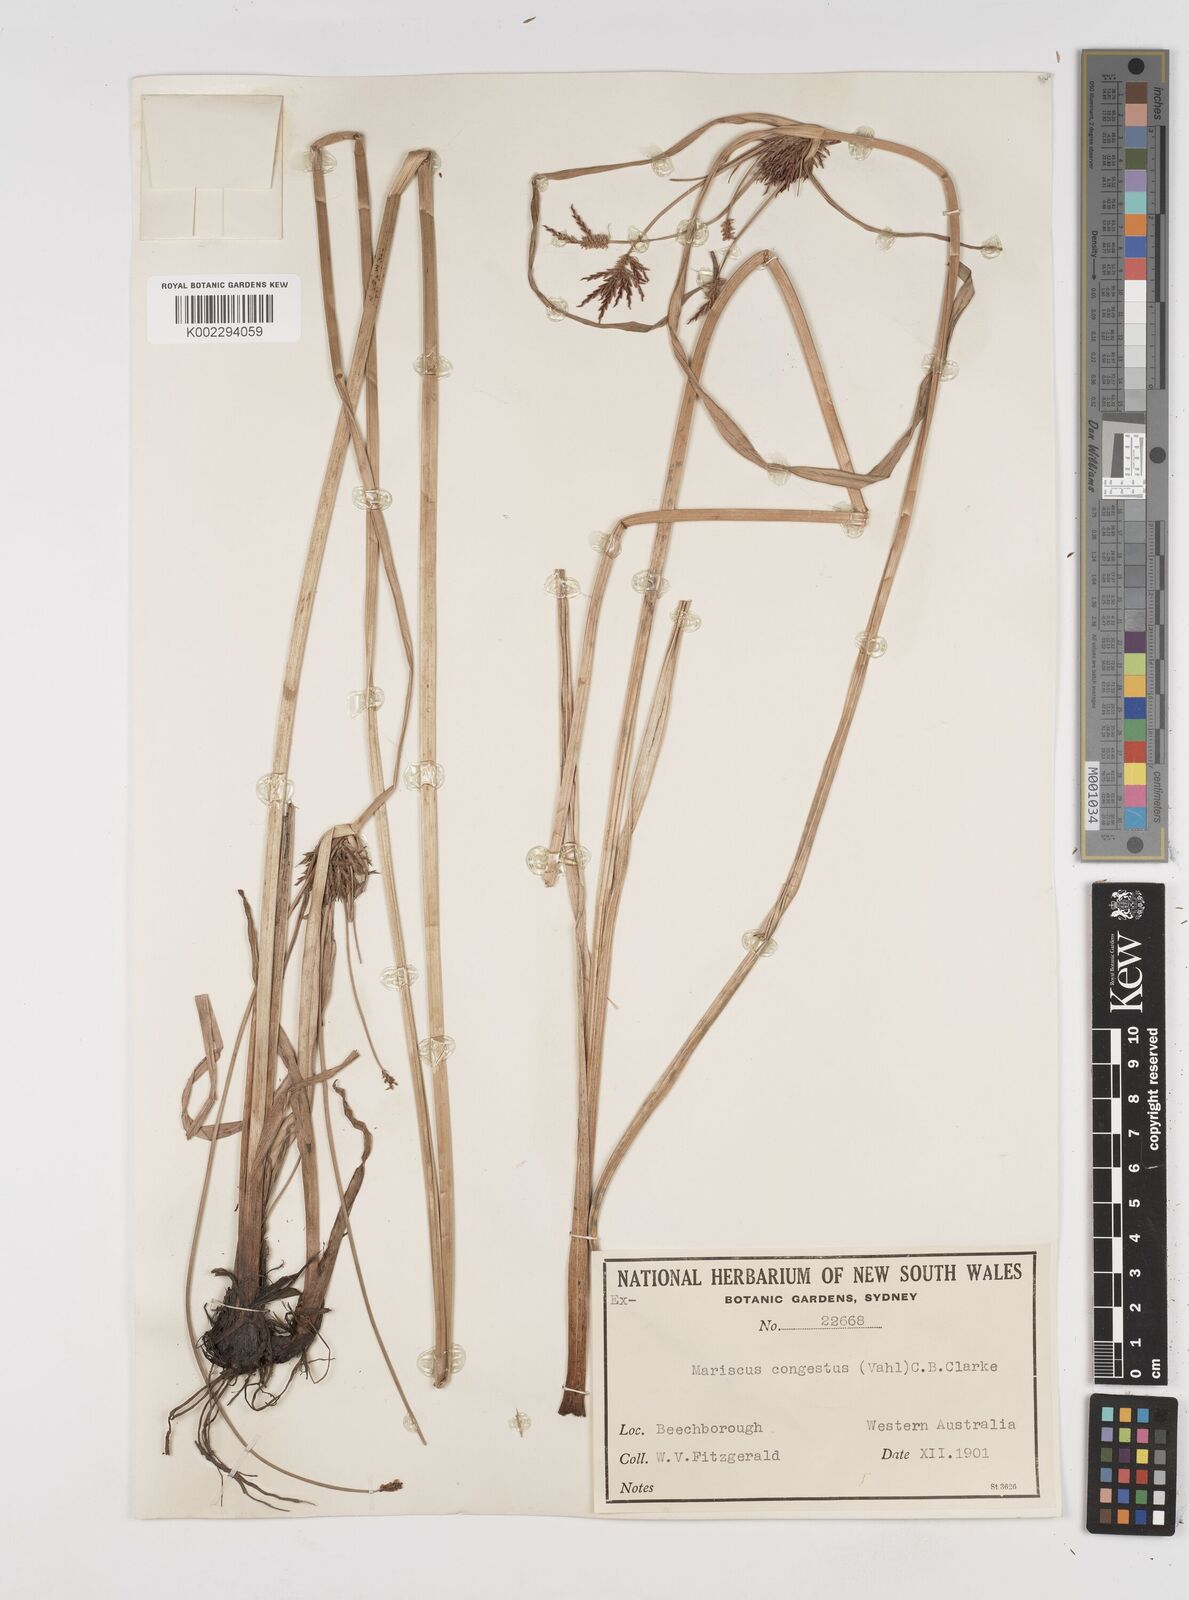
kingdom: Plantae
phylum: Tracheophyta
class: Liliopsida
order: Poales
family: Cyperaceae
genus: Cyperus
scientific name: Cyperus congestus
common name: Dense flat sedge
